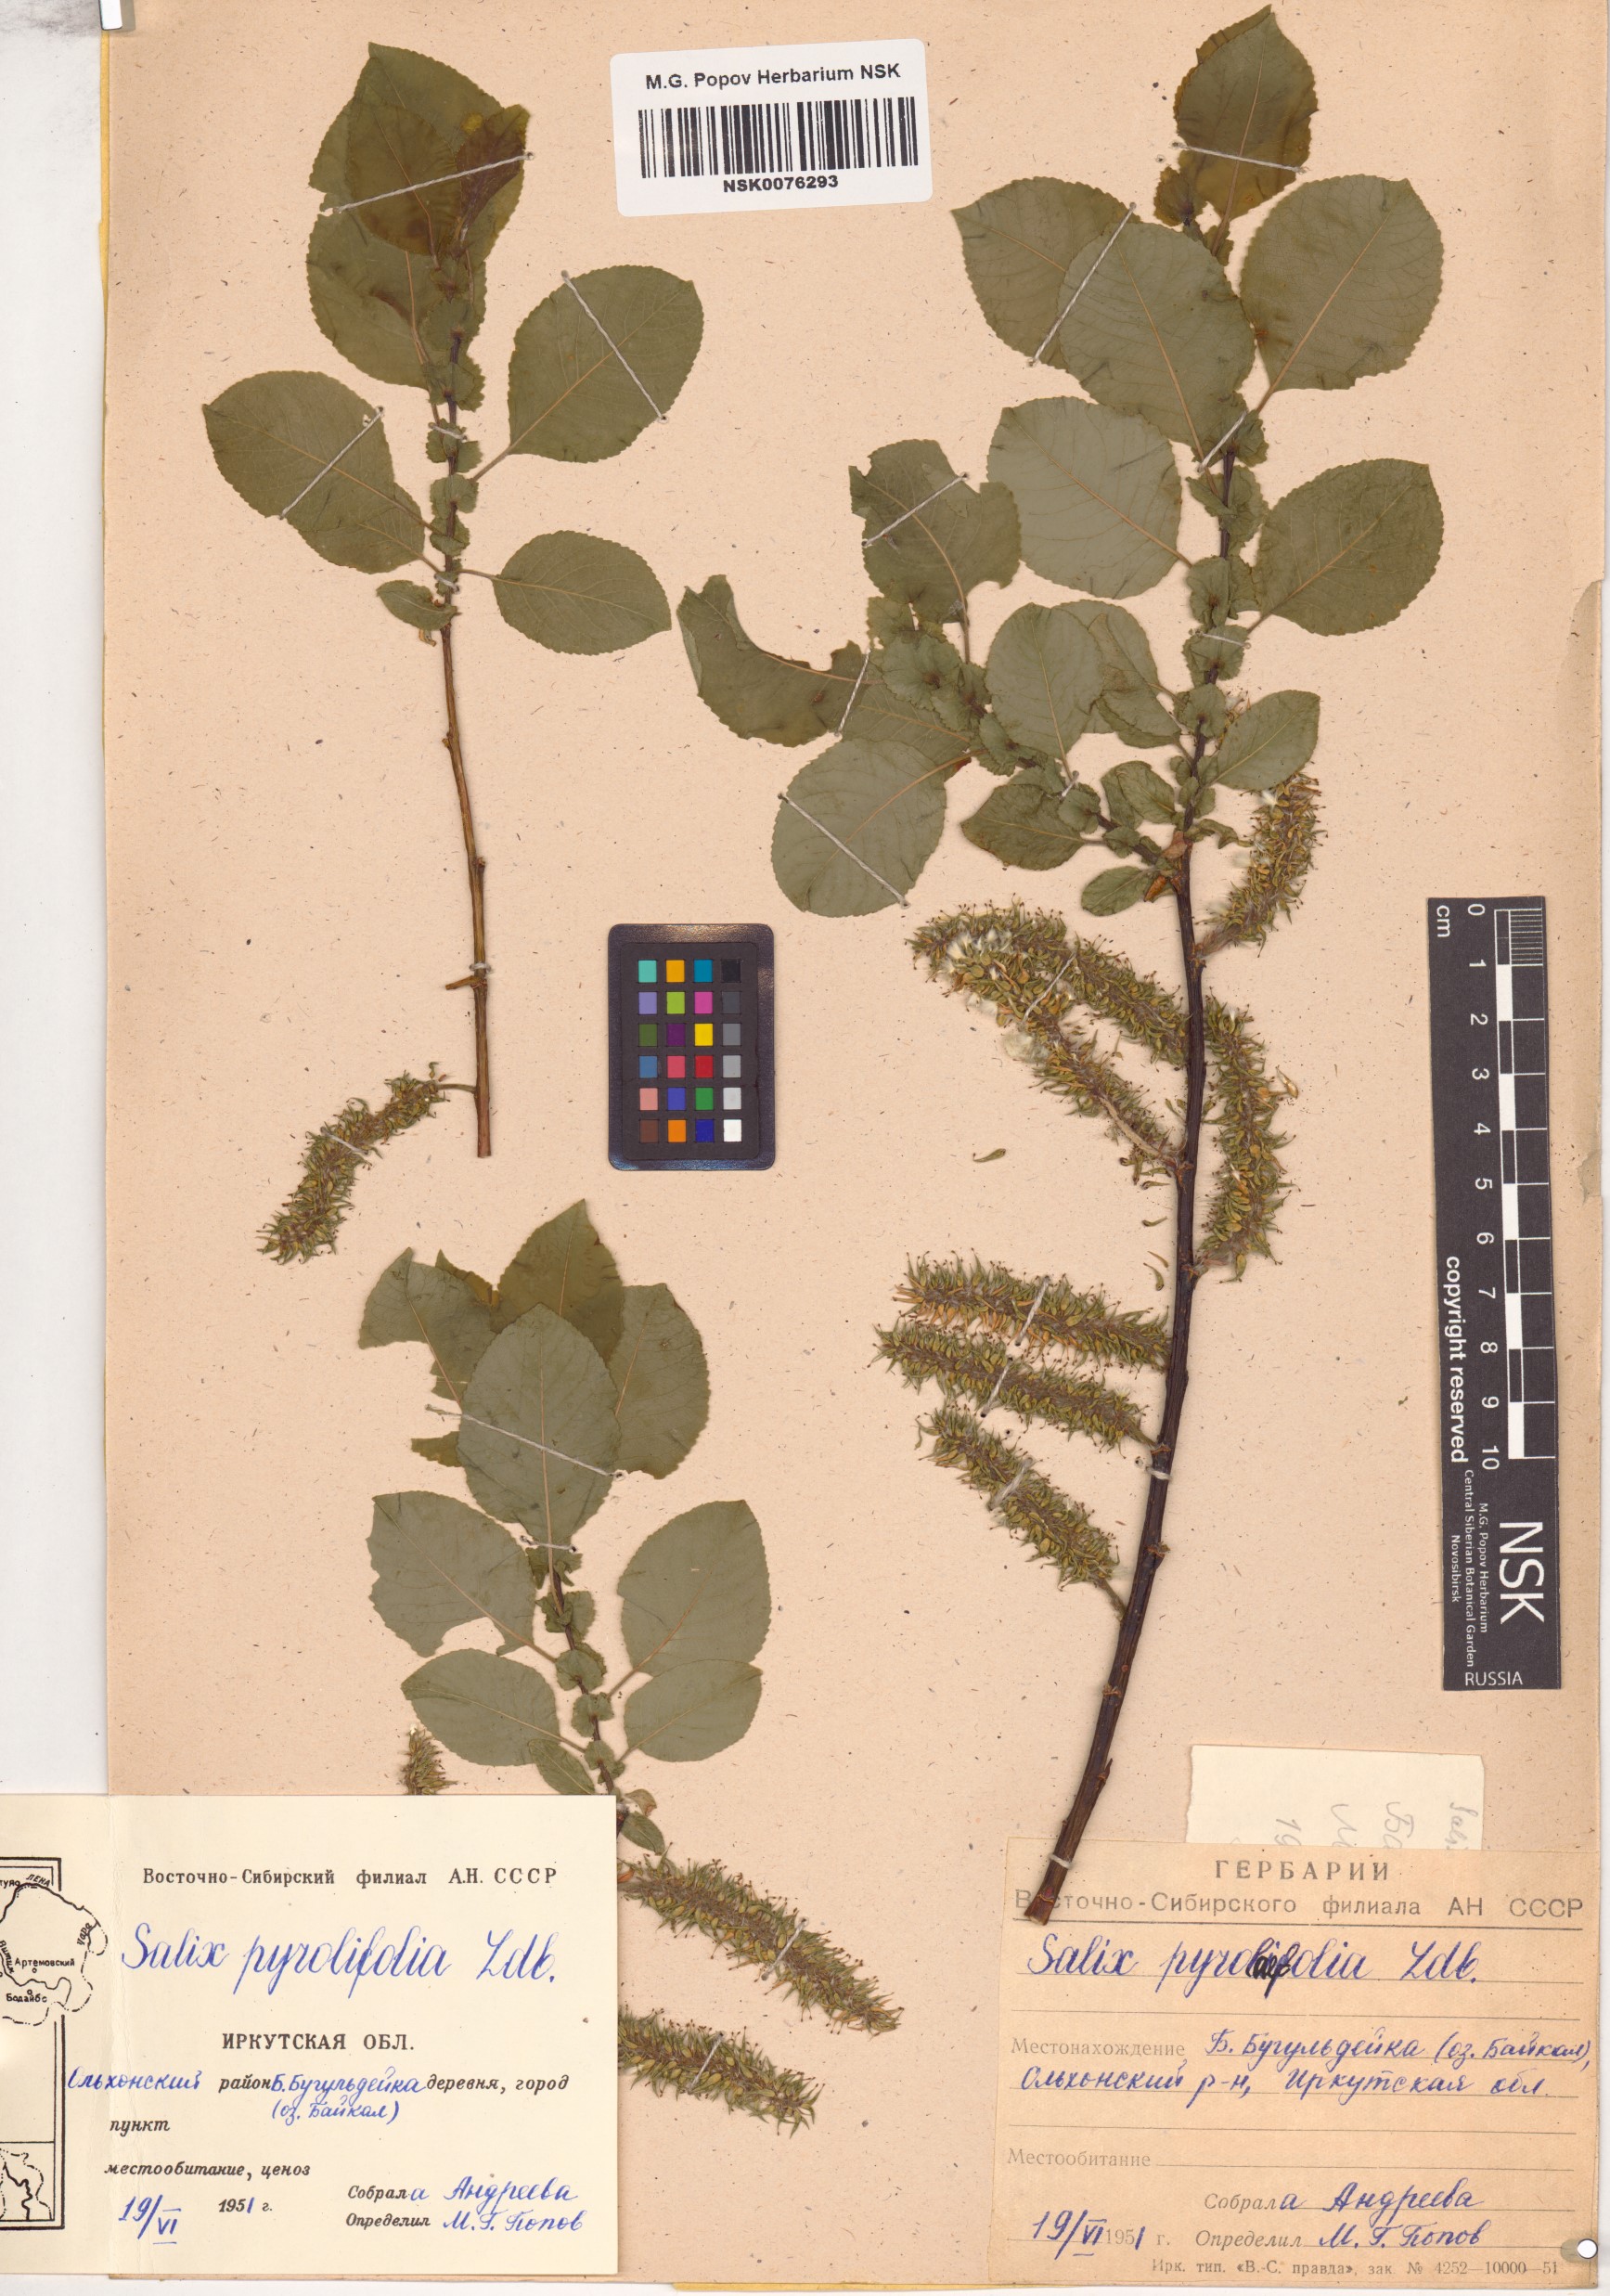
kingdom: Plantae
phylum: Tracheophyta
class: Magnoliopsida
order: Malpighiales
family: Salicaceae
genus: Salix
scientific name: Salix pyrolifolia
